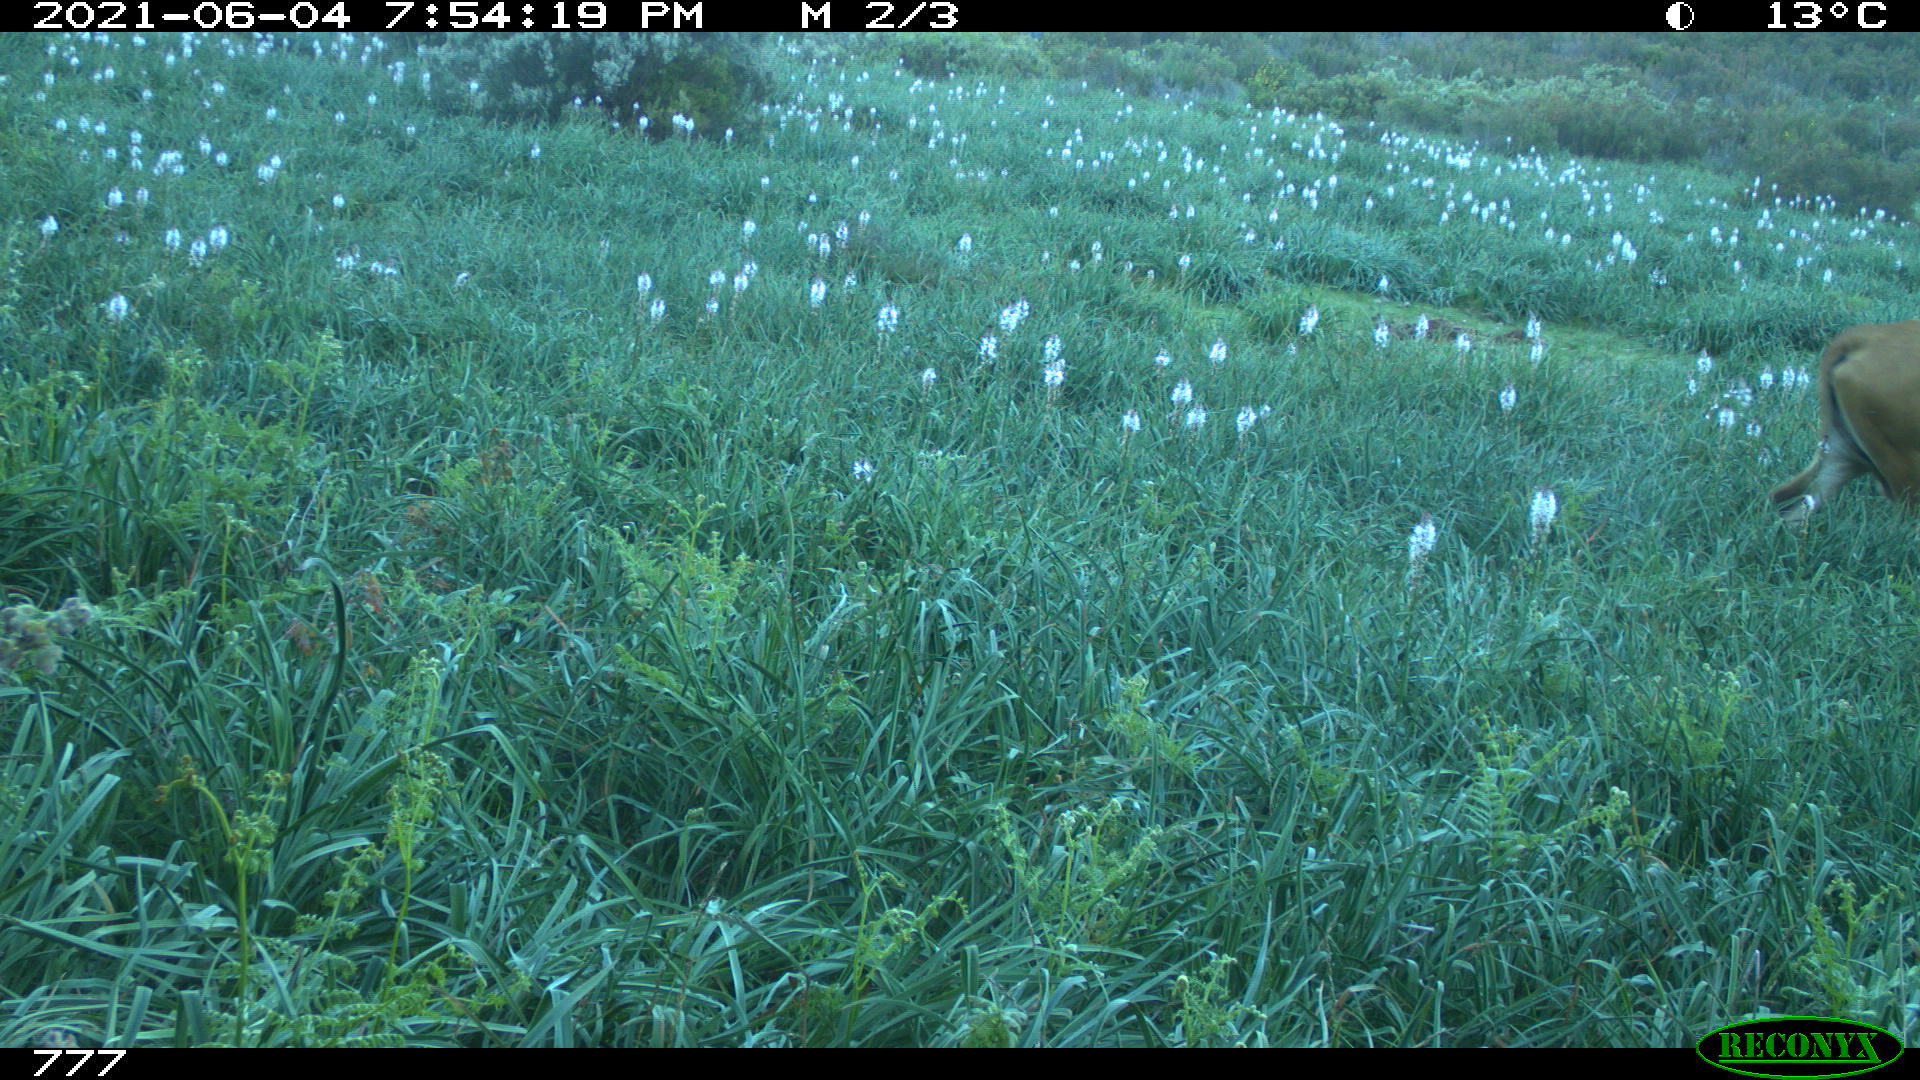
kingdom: Animalia
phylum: Chordata
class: Mammalia
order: Artiodactyla
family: Bovidae
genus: Bos
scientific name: Bos taurus
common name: Domesticated cattle
